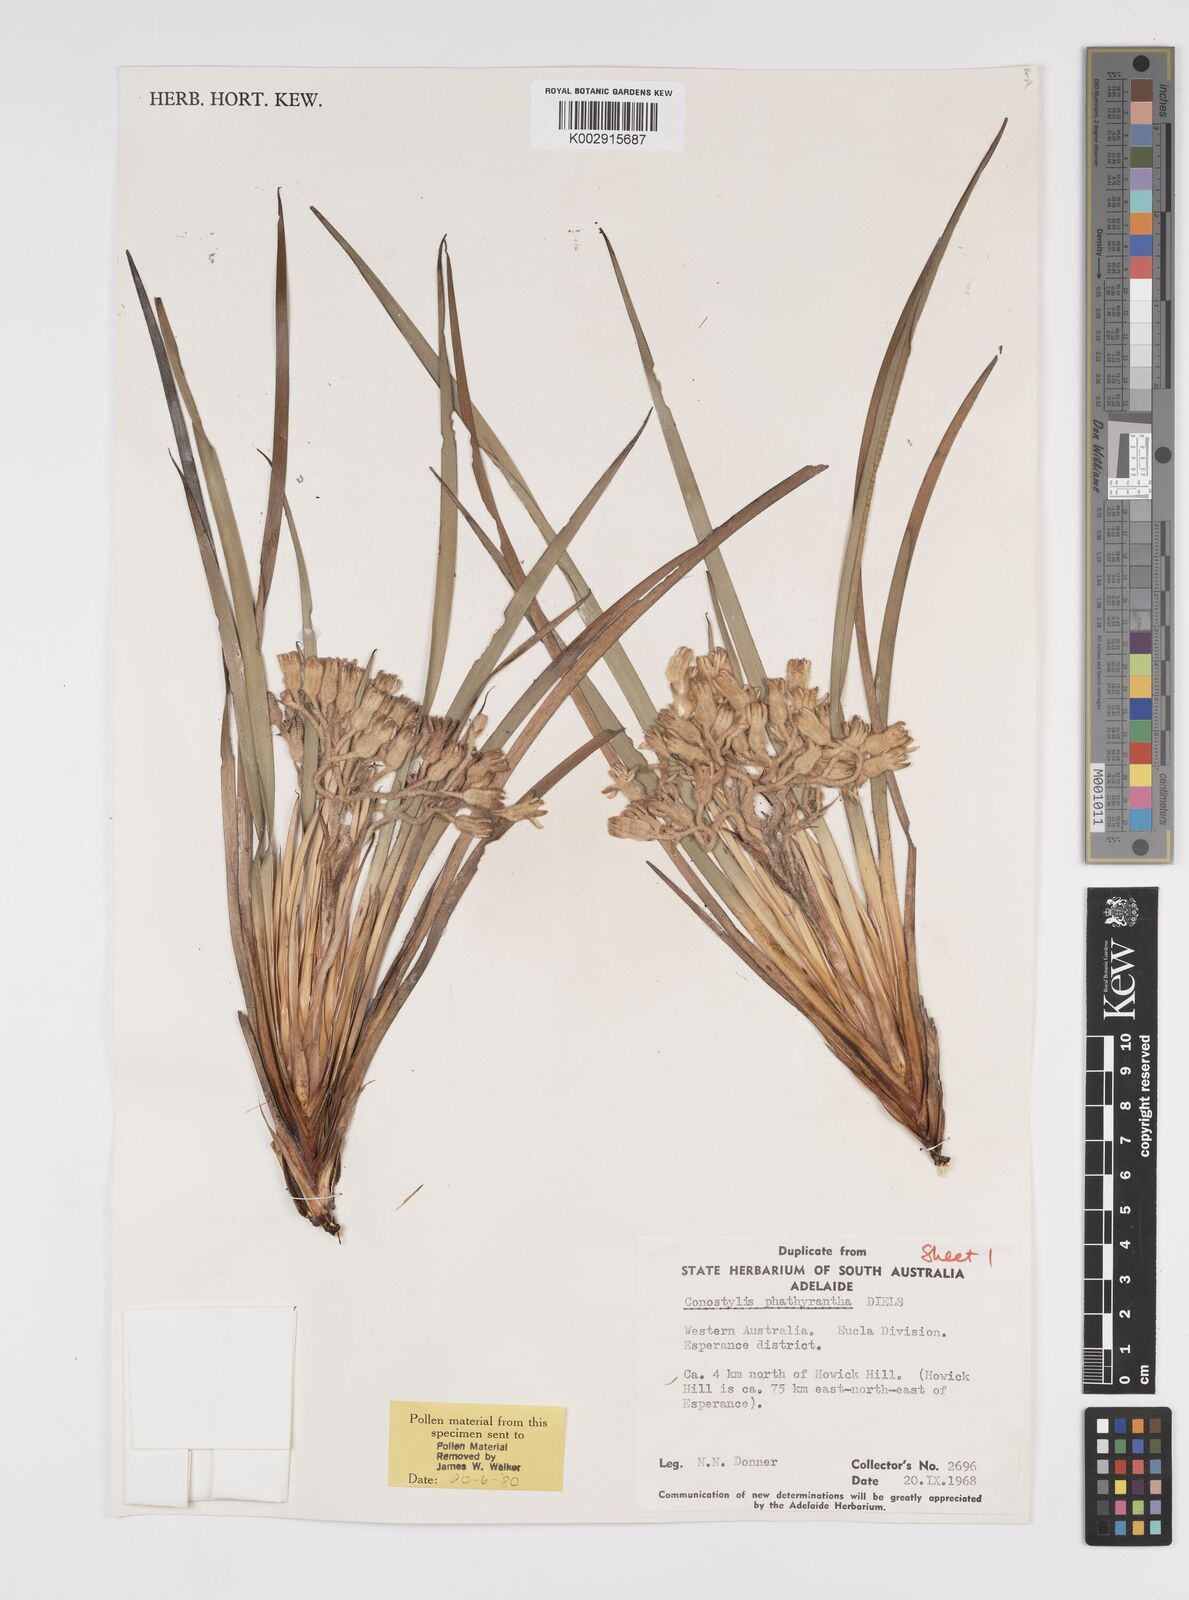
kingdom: Plantae
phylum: Tracheophyta
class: Liliopsida
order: Commelinales
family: Haemodoraceae
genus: Conostylis
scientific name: Conostylis phathyrantha
